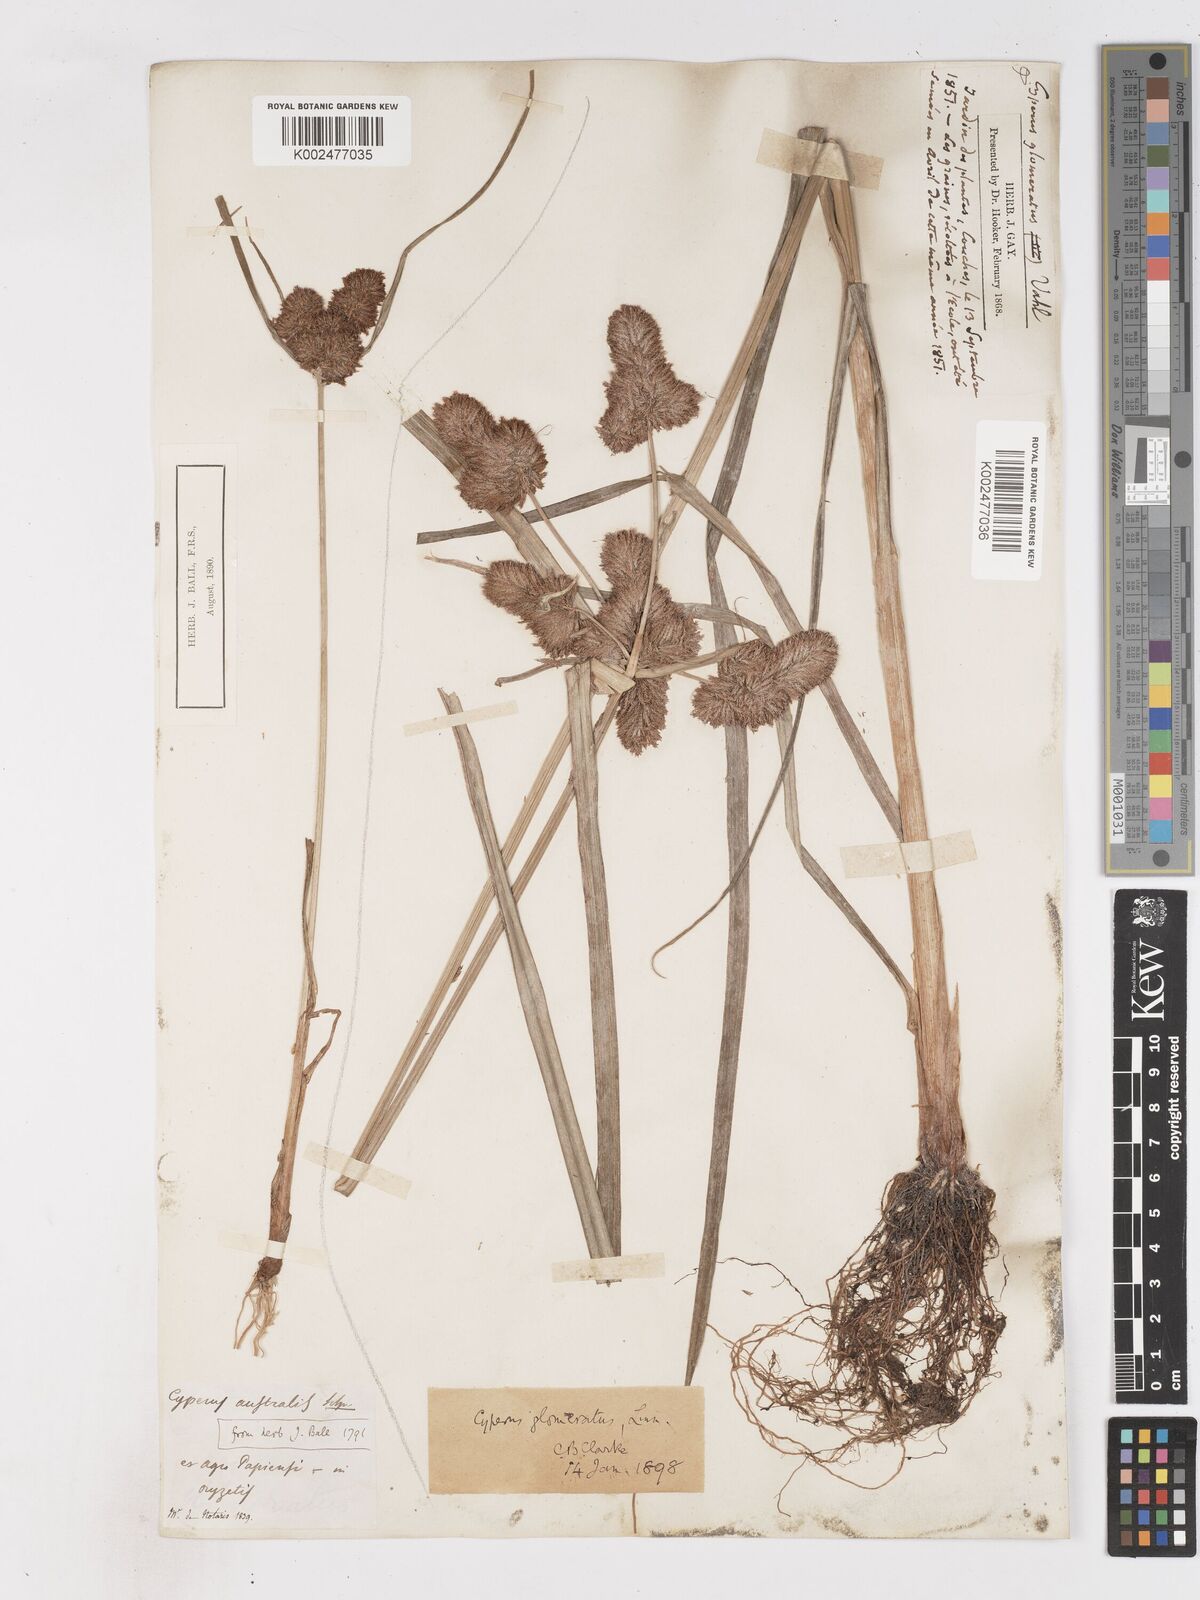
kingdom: Plantae
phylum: Tracheophyta
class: Liliopsida
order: Poales
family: Cyperaceae
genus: Cyperus
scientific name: Cyperus glomeratus
